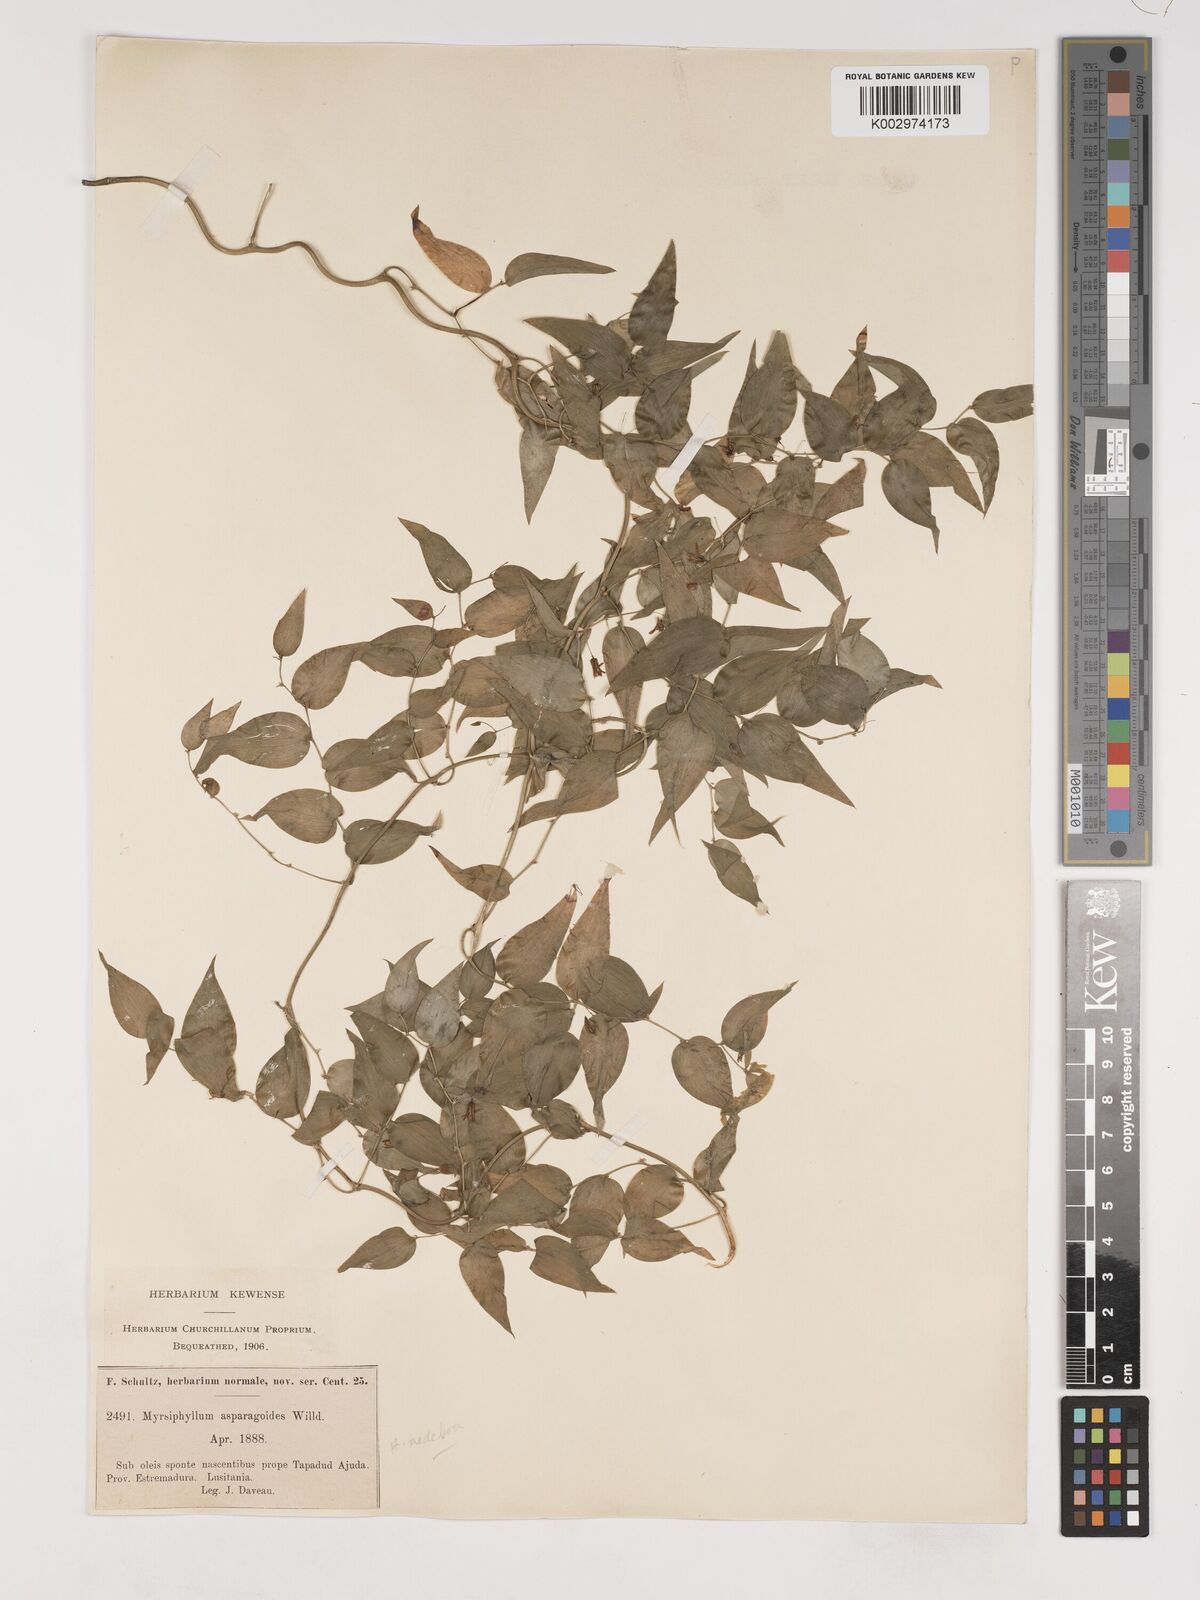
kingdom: Plantae
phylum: Tracheophyta
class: Liliopsida
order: Asparagales
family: Asparagaceae
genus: Asparagus
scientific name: Asparagus asparagoides
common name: African asparagus fern
